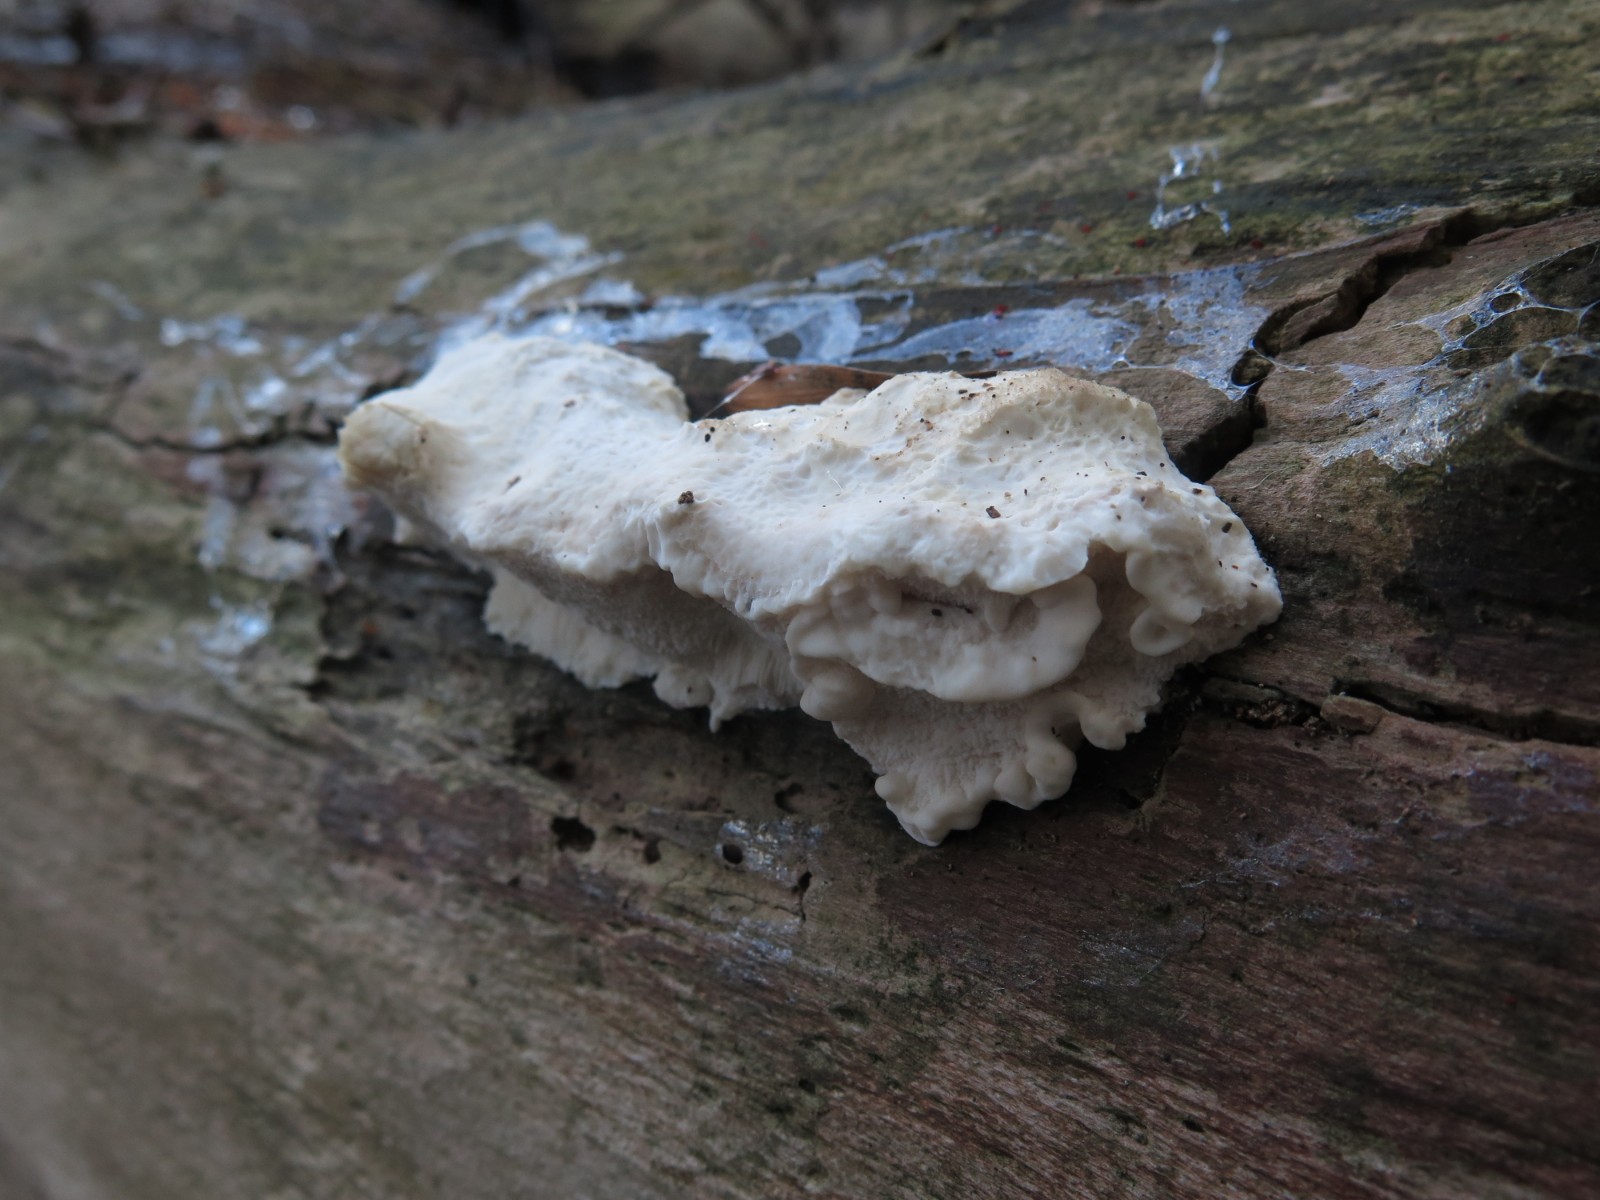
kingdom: Fungi
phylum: Basidiomycota
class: Agaricomycetes
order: Polyporales
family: Incrustoporiaceae
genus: Tyromyces
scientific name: Tyromyces lacteus
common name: mælkehvid kødporesvamp
